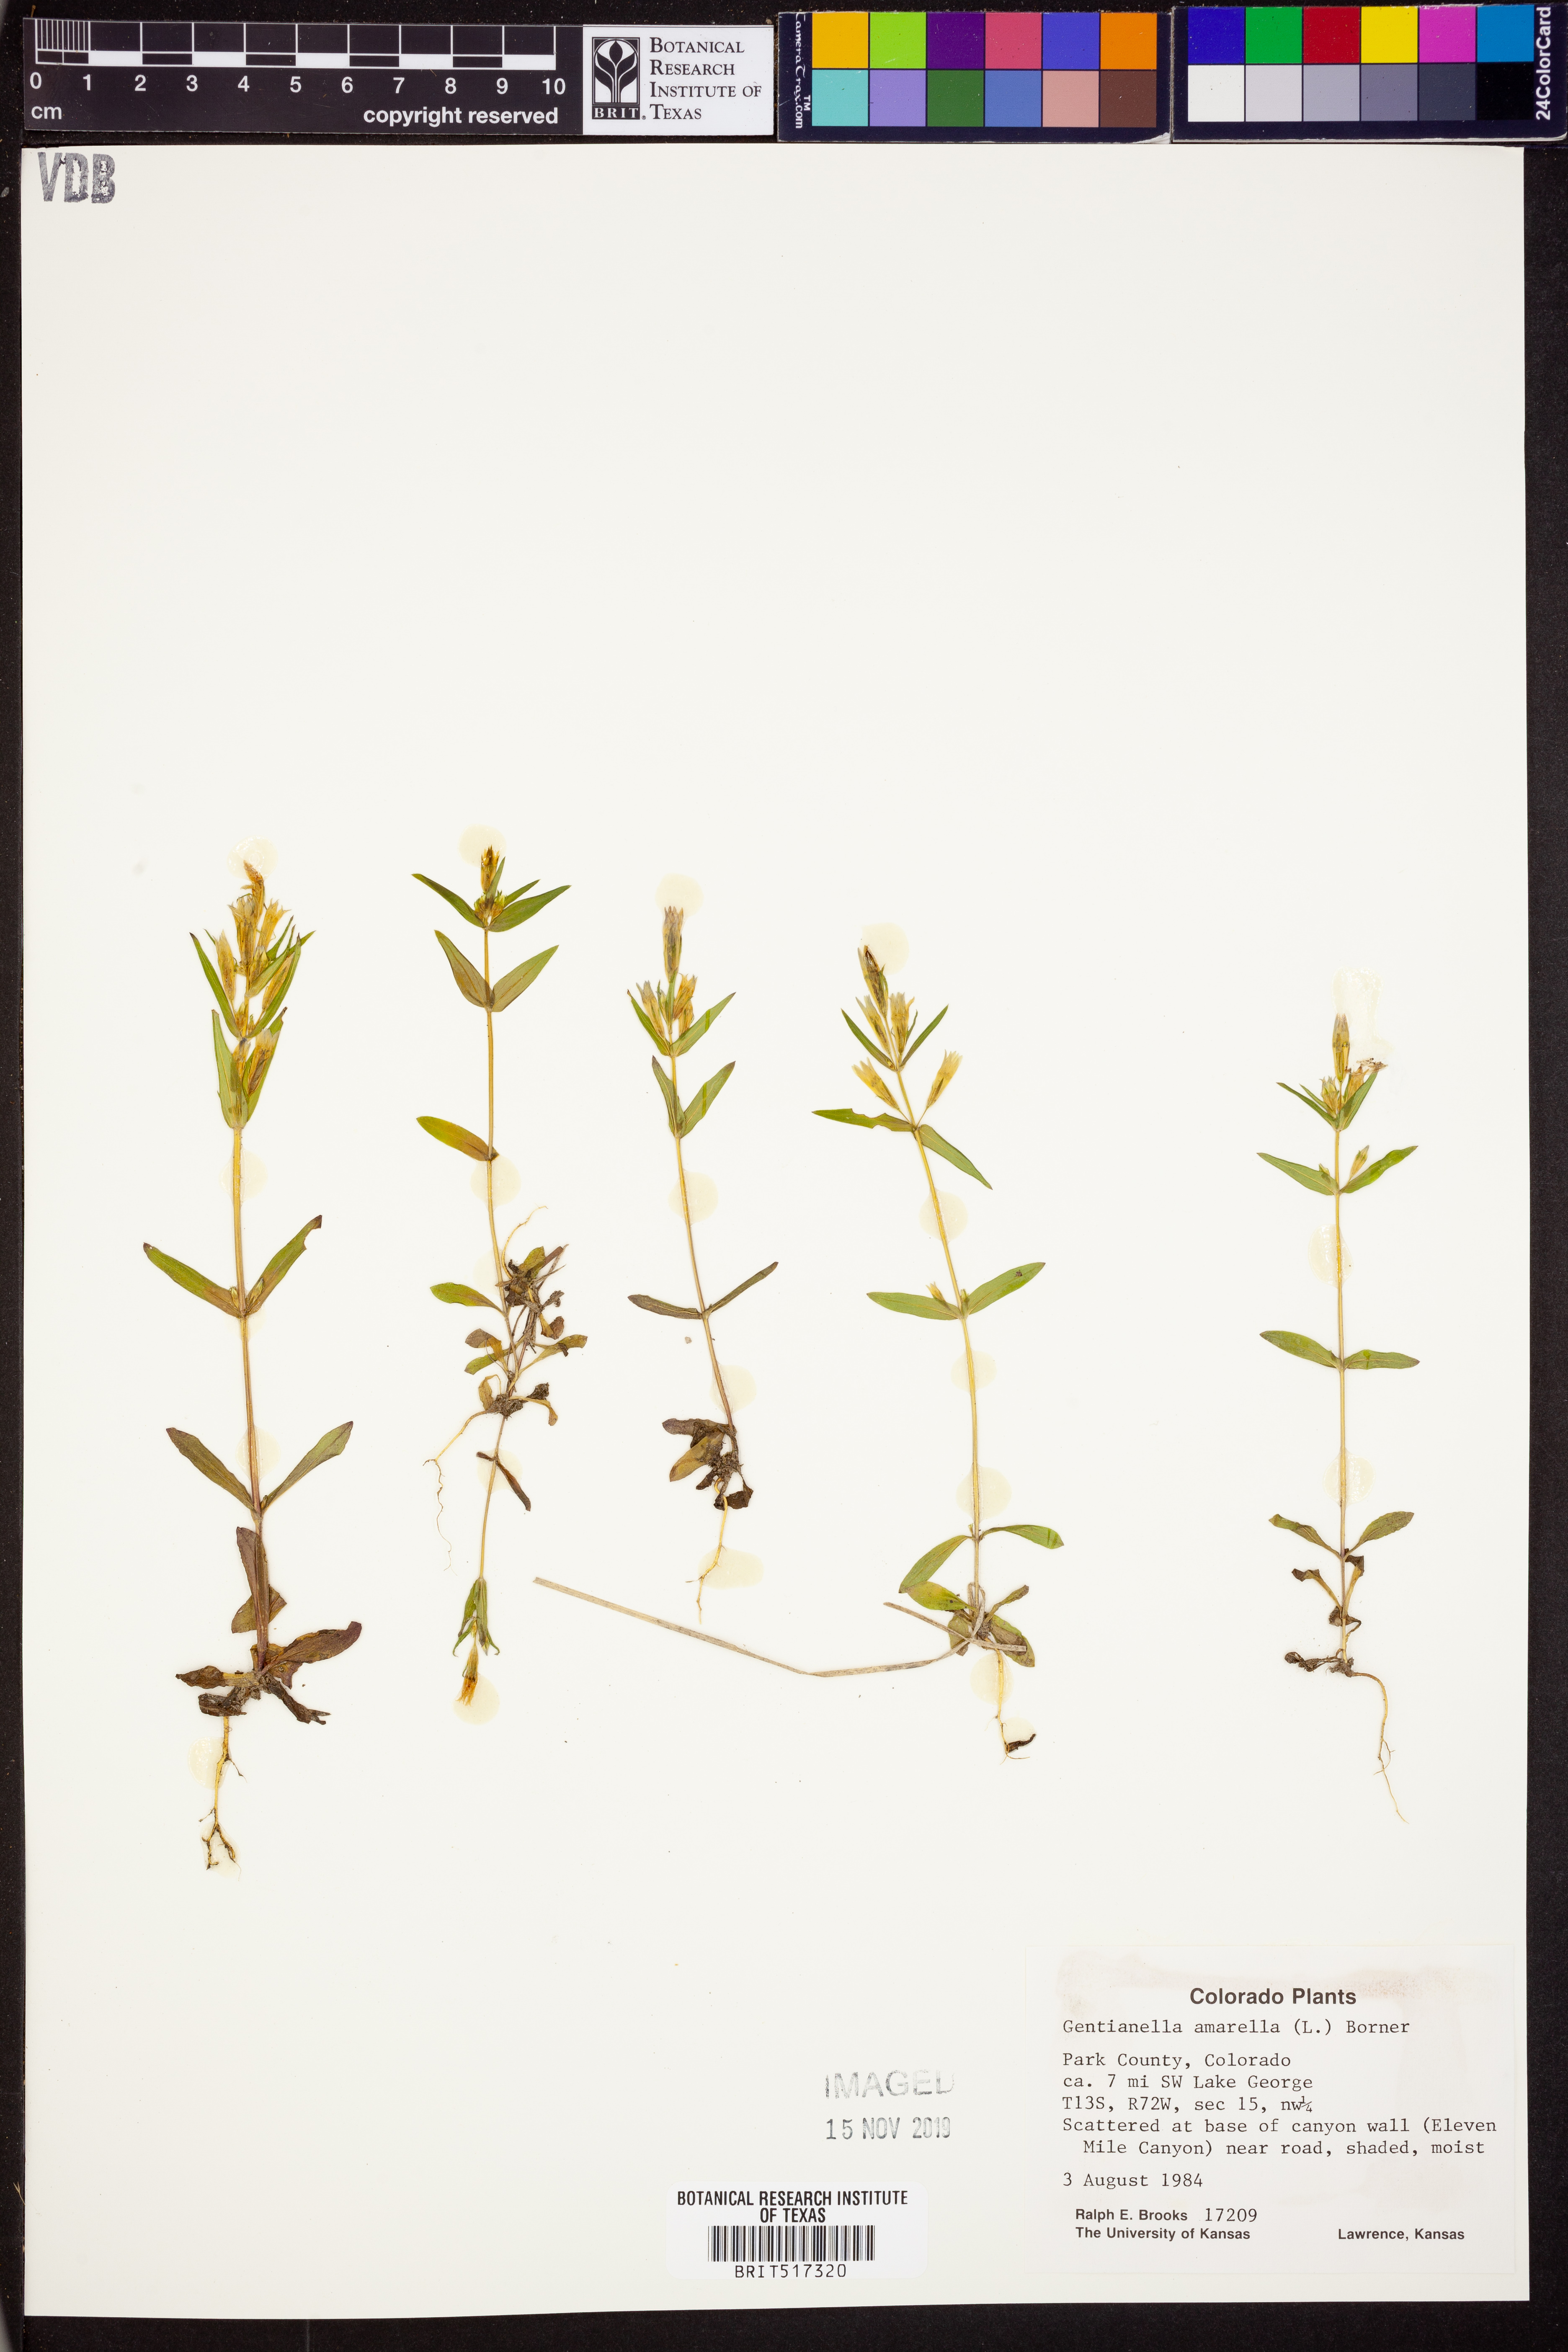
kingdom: Plantae
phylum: Tracheophyta
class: Magnoliopsida
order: Gentianales
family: Gentianaceae
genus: Gentianella
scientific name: Gentianella amarella
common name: Autumn gentian
